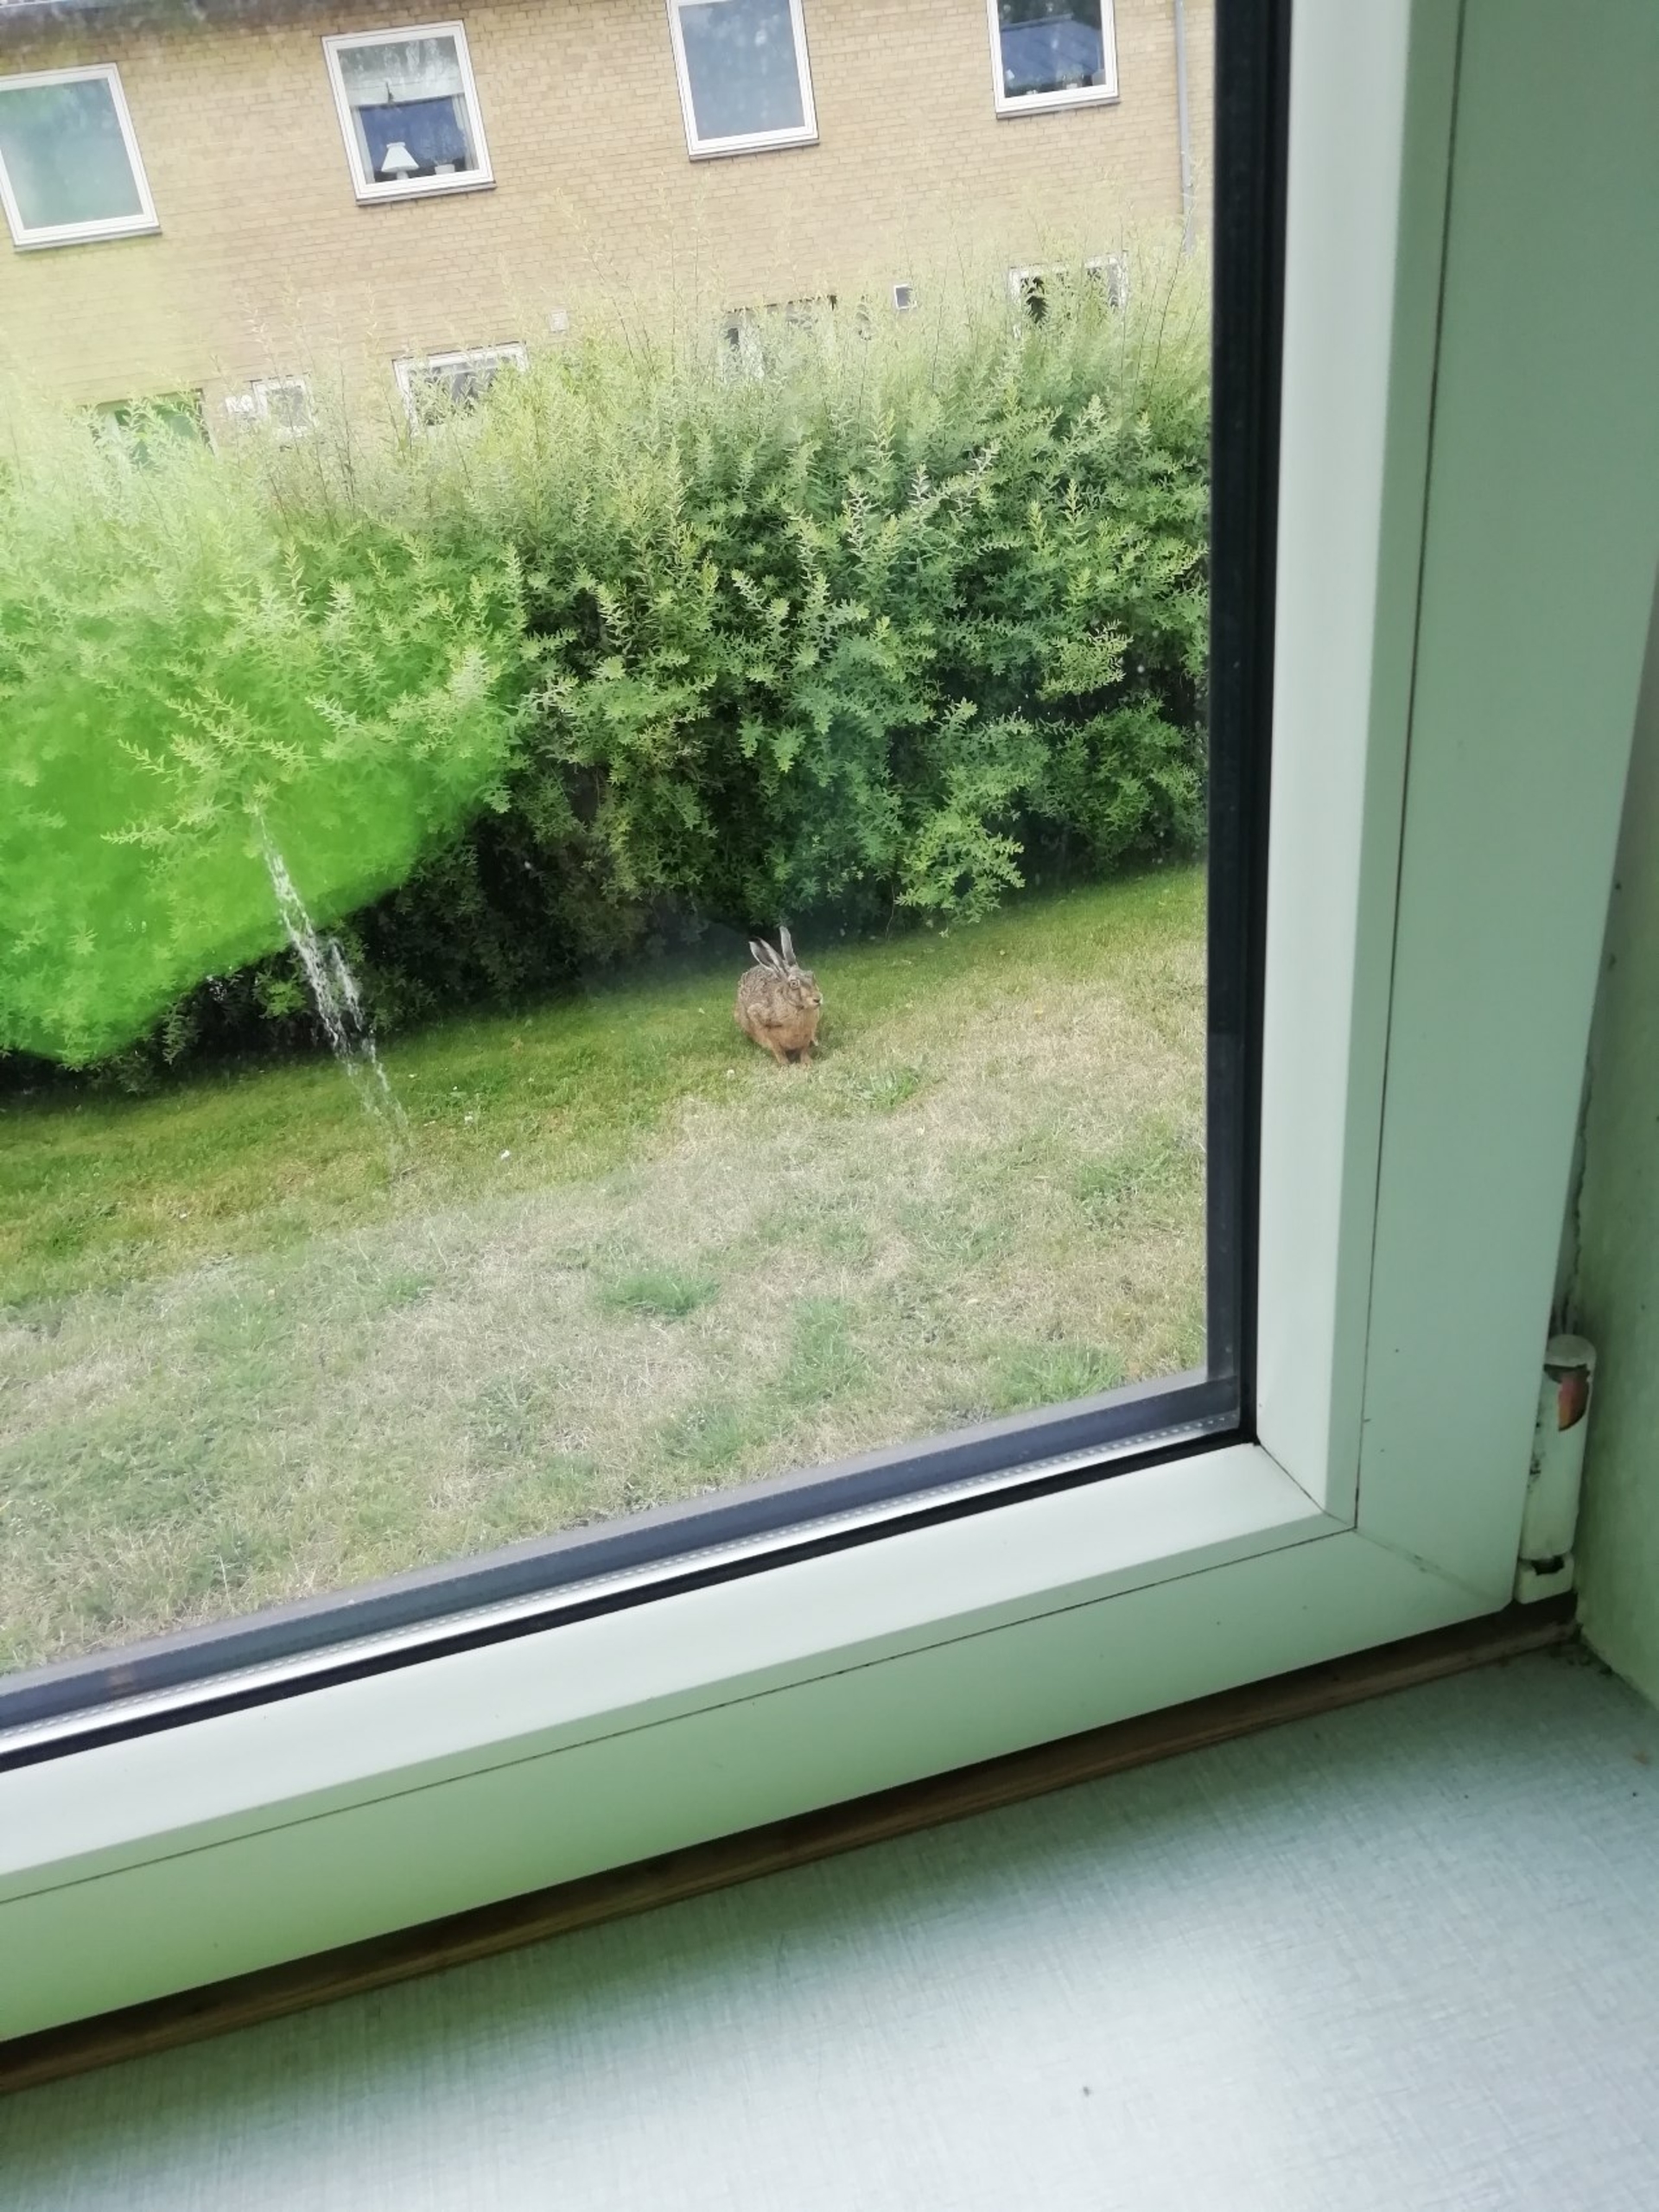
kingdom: Animalia
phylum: Chordata
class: Mammalia
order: Lagomorpha
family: Leporidae
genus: Lepus
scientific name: Lepus europaeus
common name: Hare
